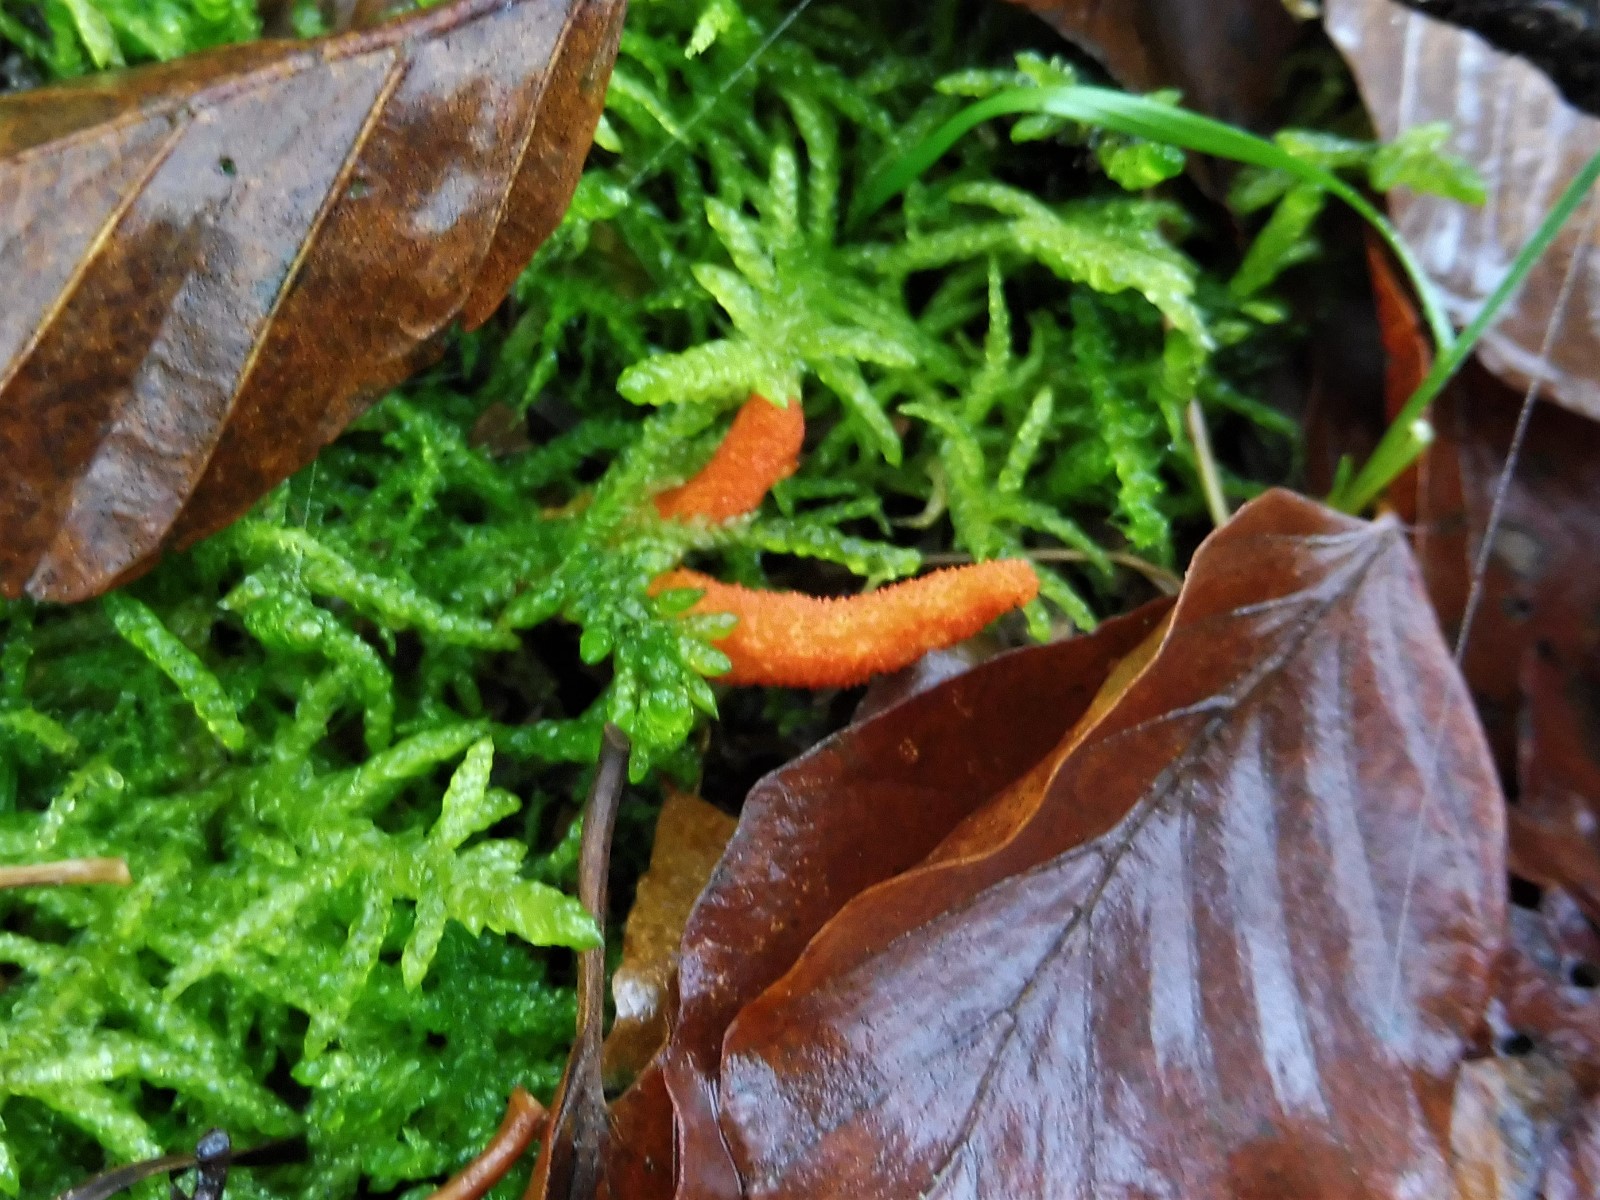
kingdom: Fungi
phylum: Ascomycota
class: Sordariomycetes
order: Hypocreales
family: Cordycipitaceae
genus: Cordyceps
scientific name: Cordyceps militaris
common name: puppe-snyltekølle
